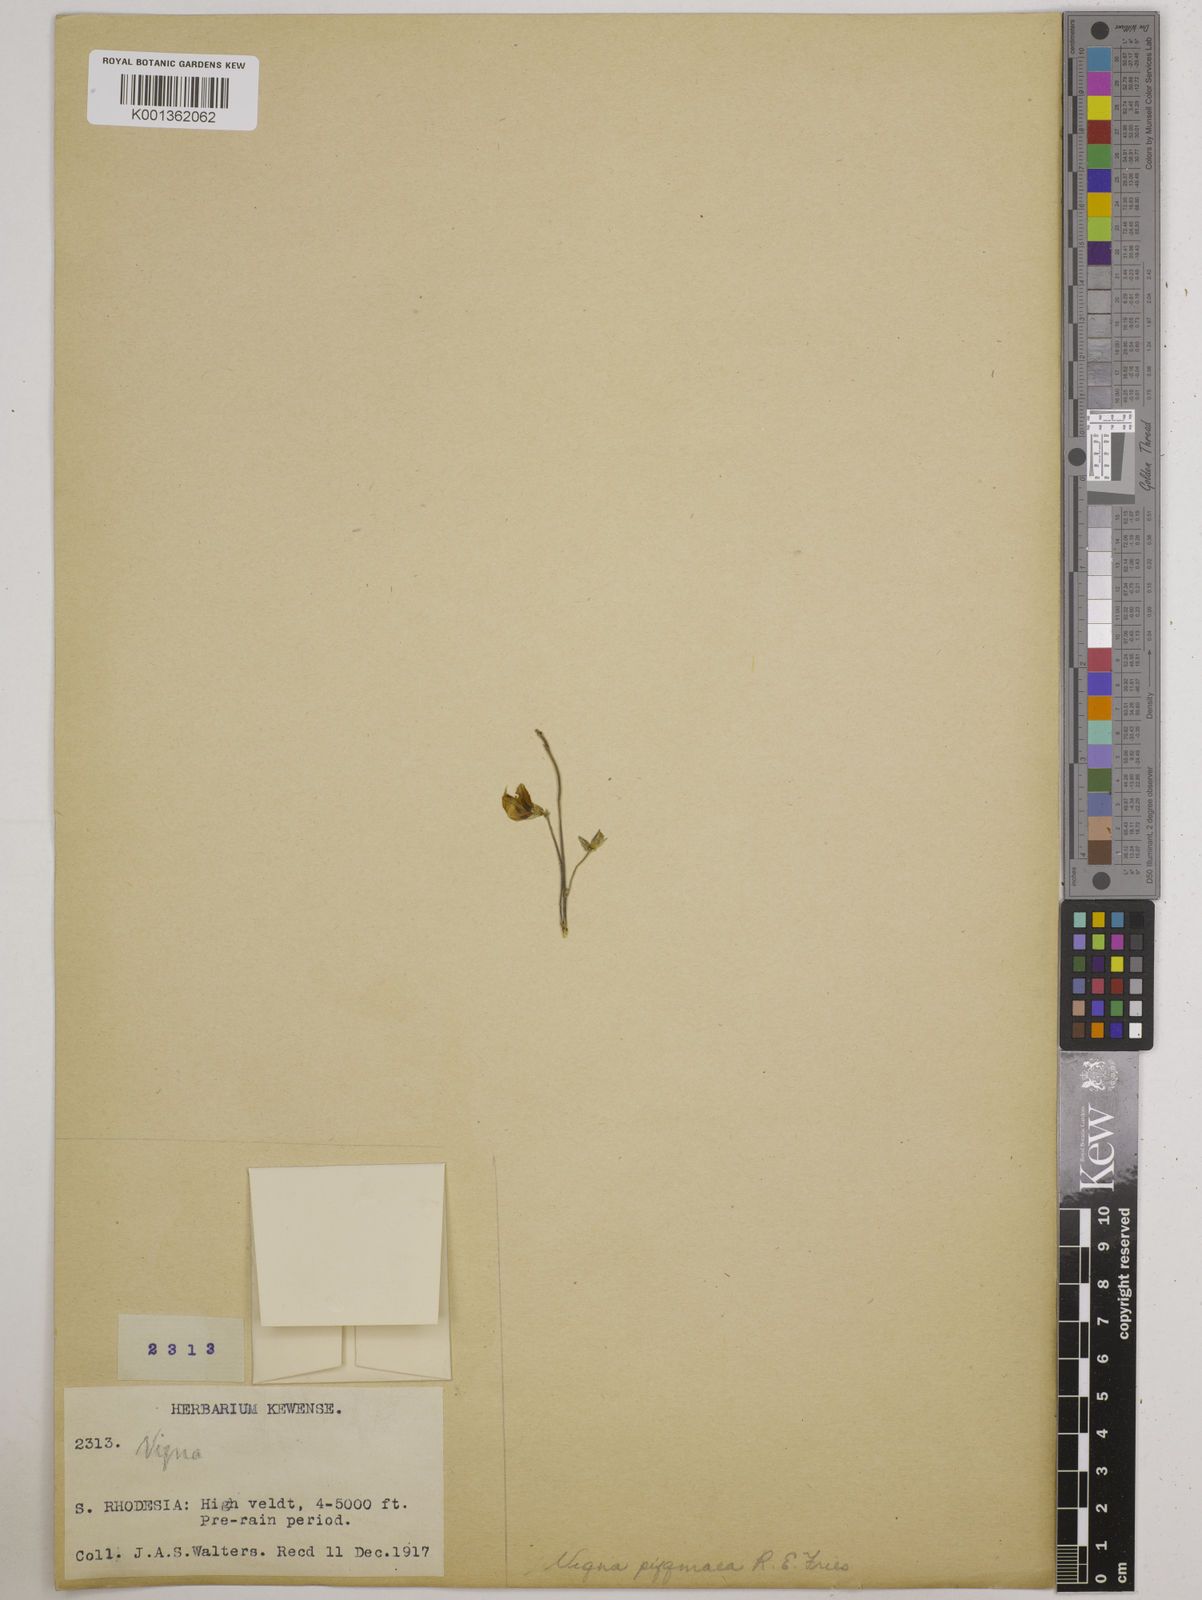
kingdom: Plantae
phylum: Tracheophyta
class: Magnoliopsida
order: Fabales
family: Fabaceae
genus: Vigna
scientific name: Vigna pygmaea
